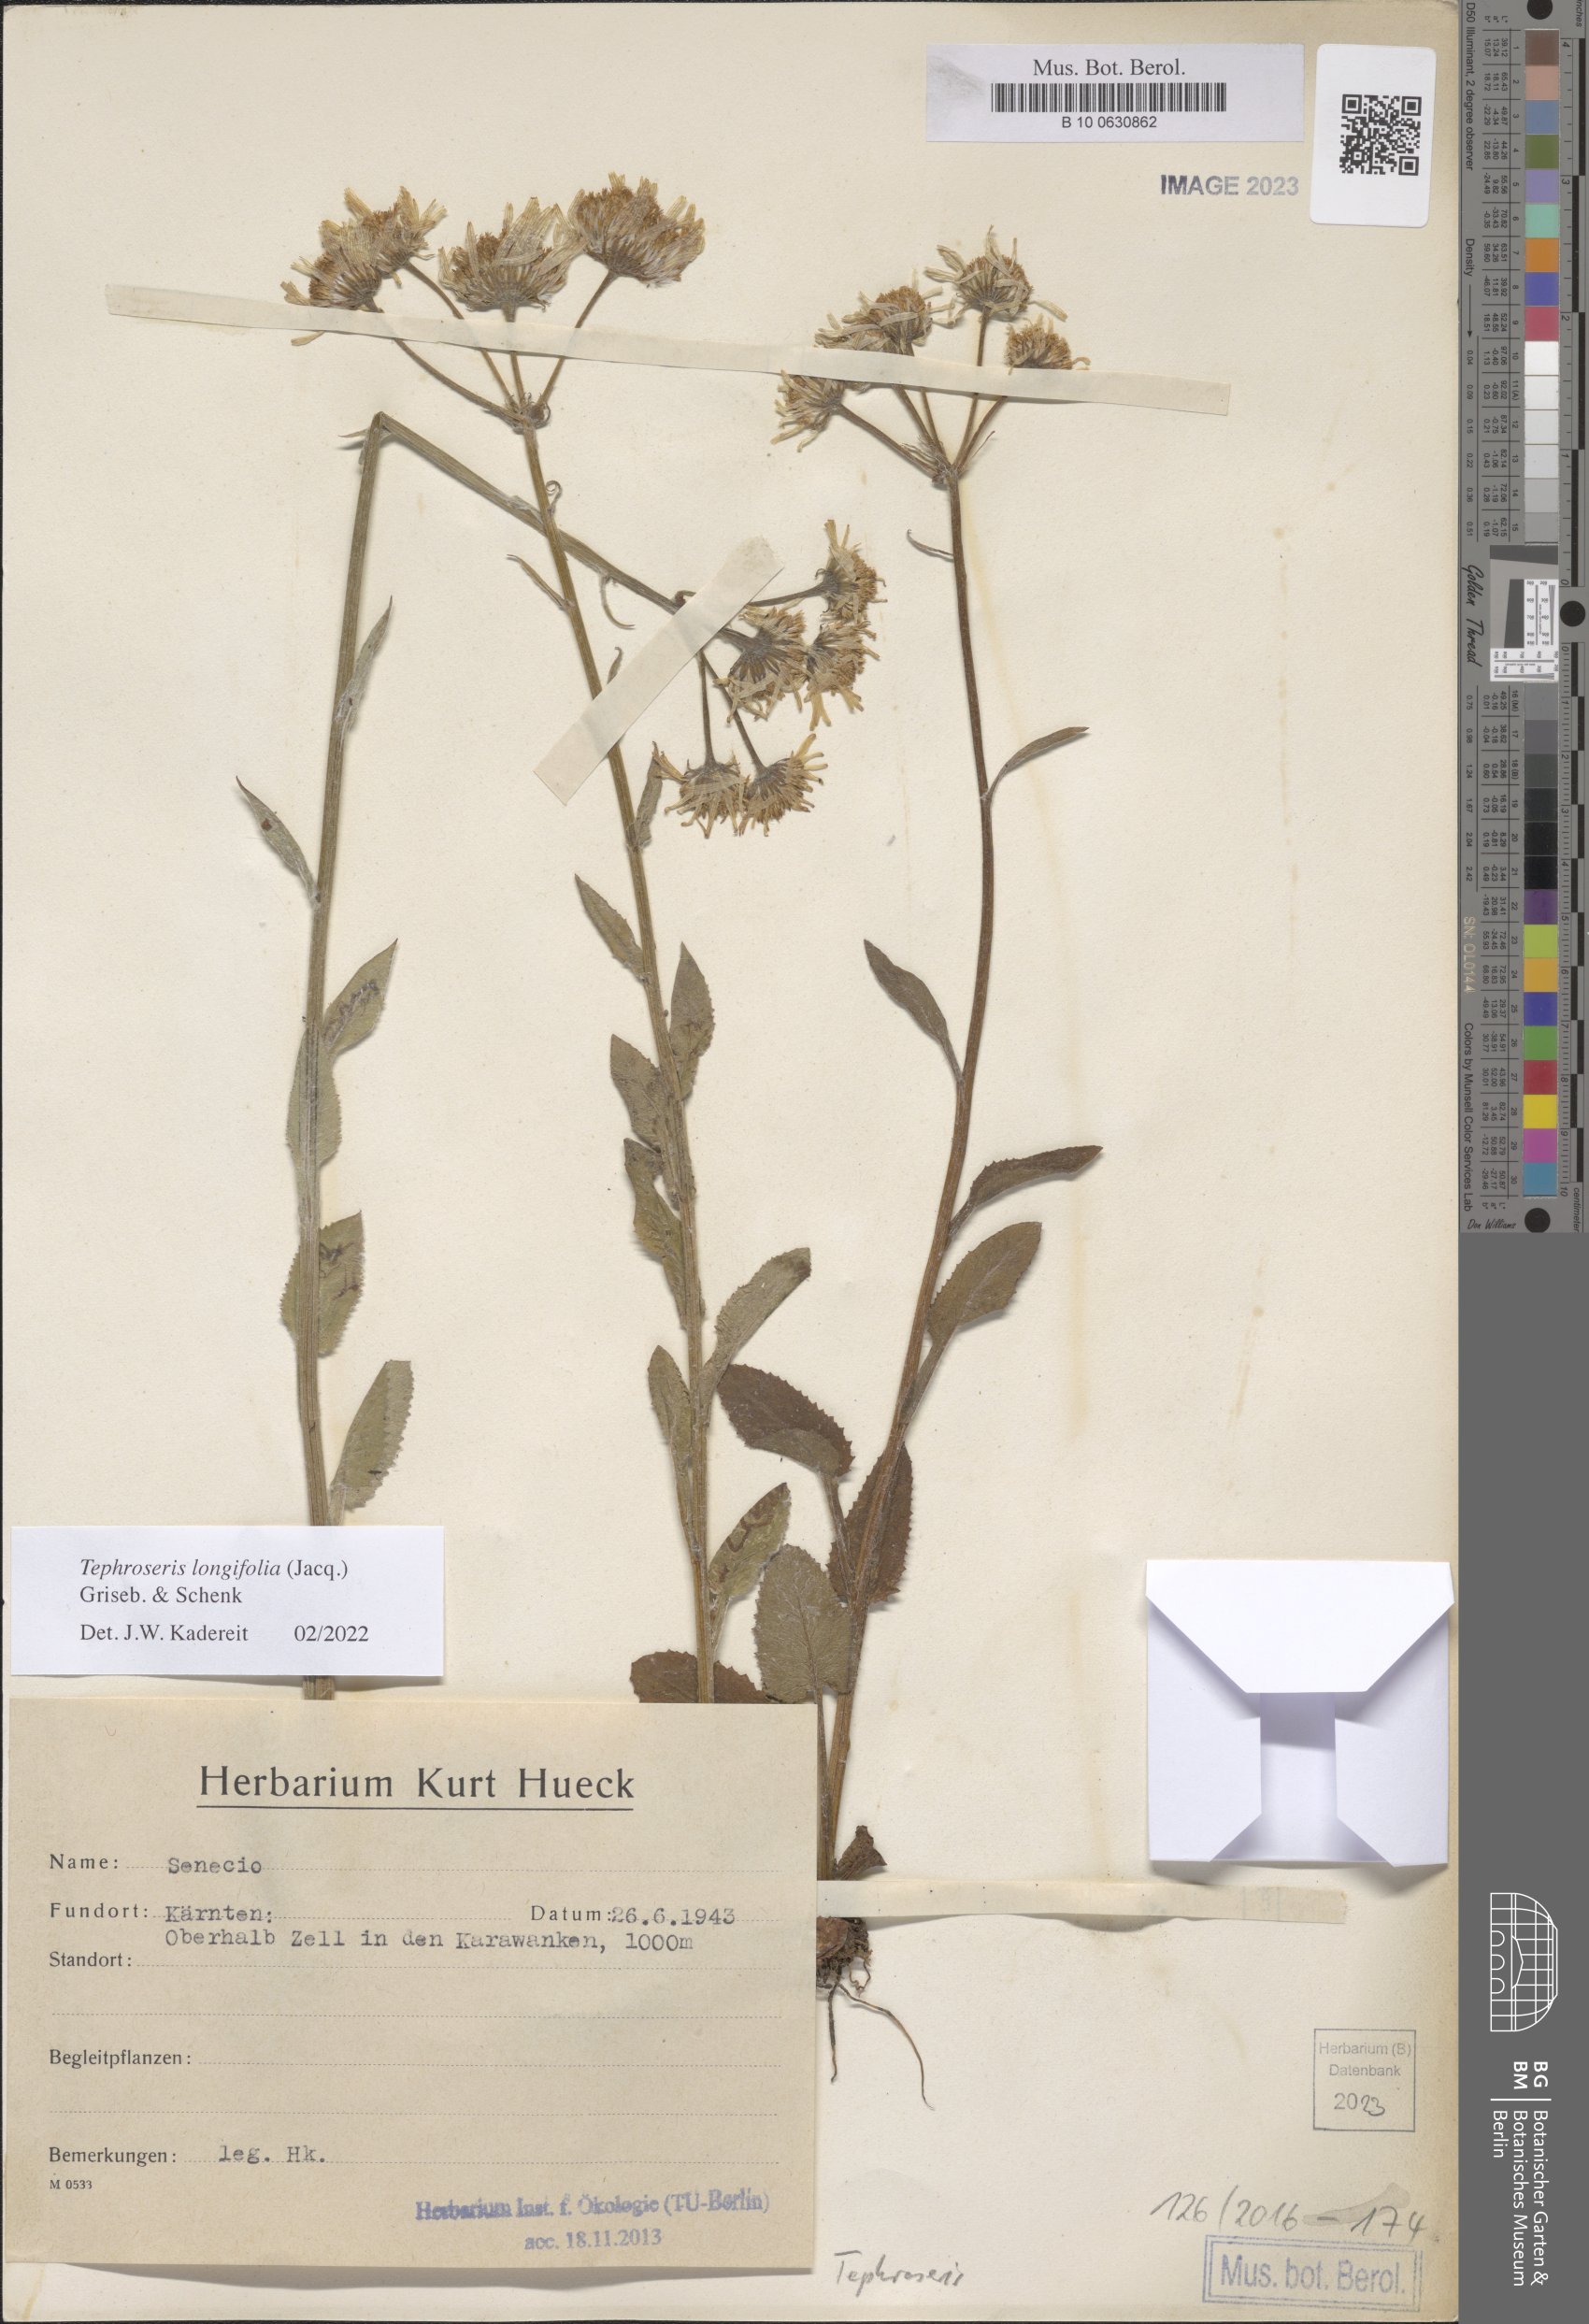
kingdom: Plantae
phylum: Tracheophyta
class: Magnoliopsida
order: Asterales
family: Asteraceae
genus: Tephroseris
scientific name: Tephroseris longifolia
